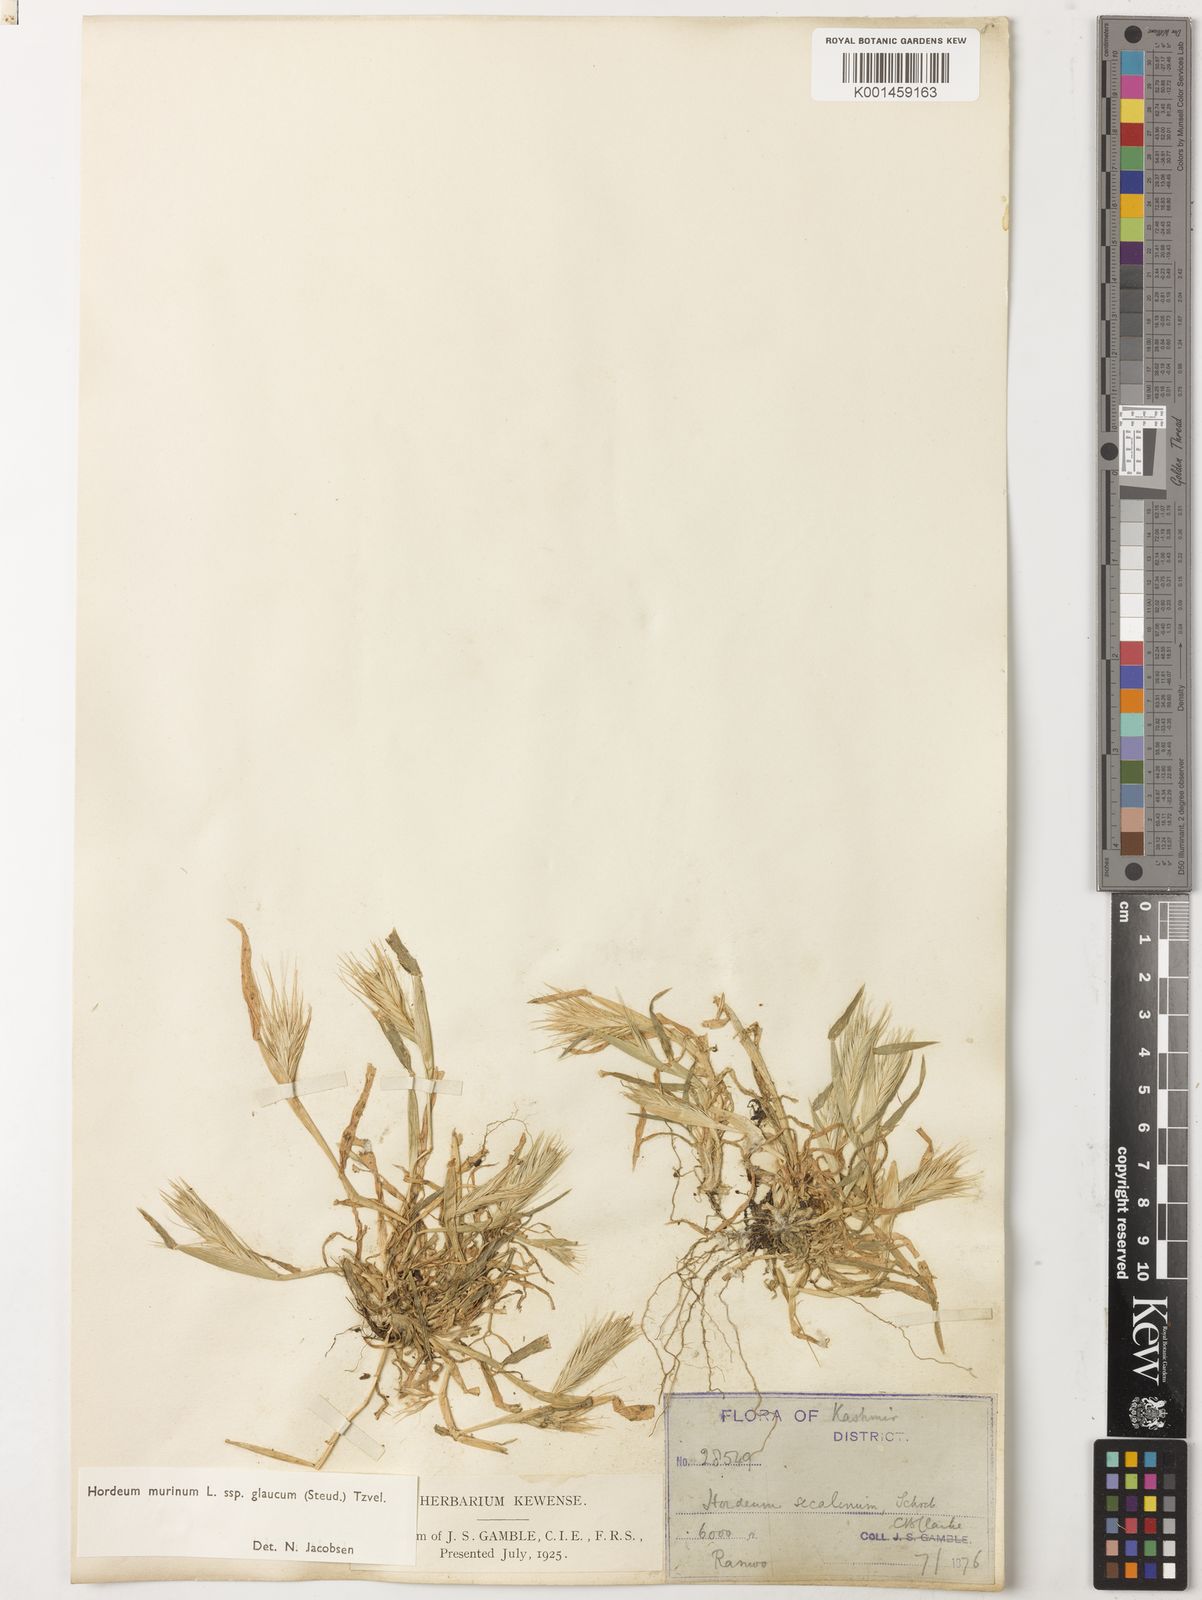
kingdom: Plantae
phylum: Tracheophyta
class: Liliopsida
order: Poales
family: Poaceae
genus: Hordeum
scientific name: Hordeum murinum
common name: Wall barley
